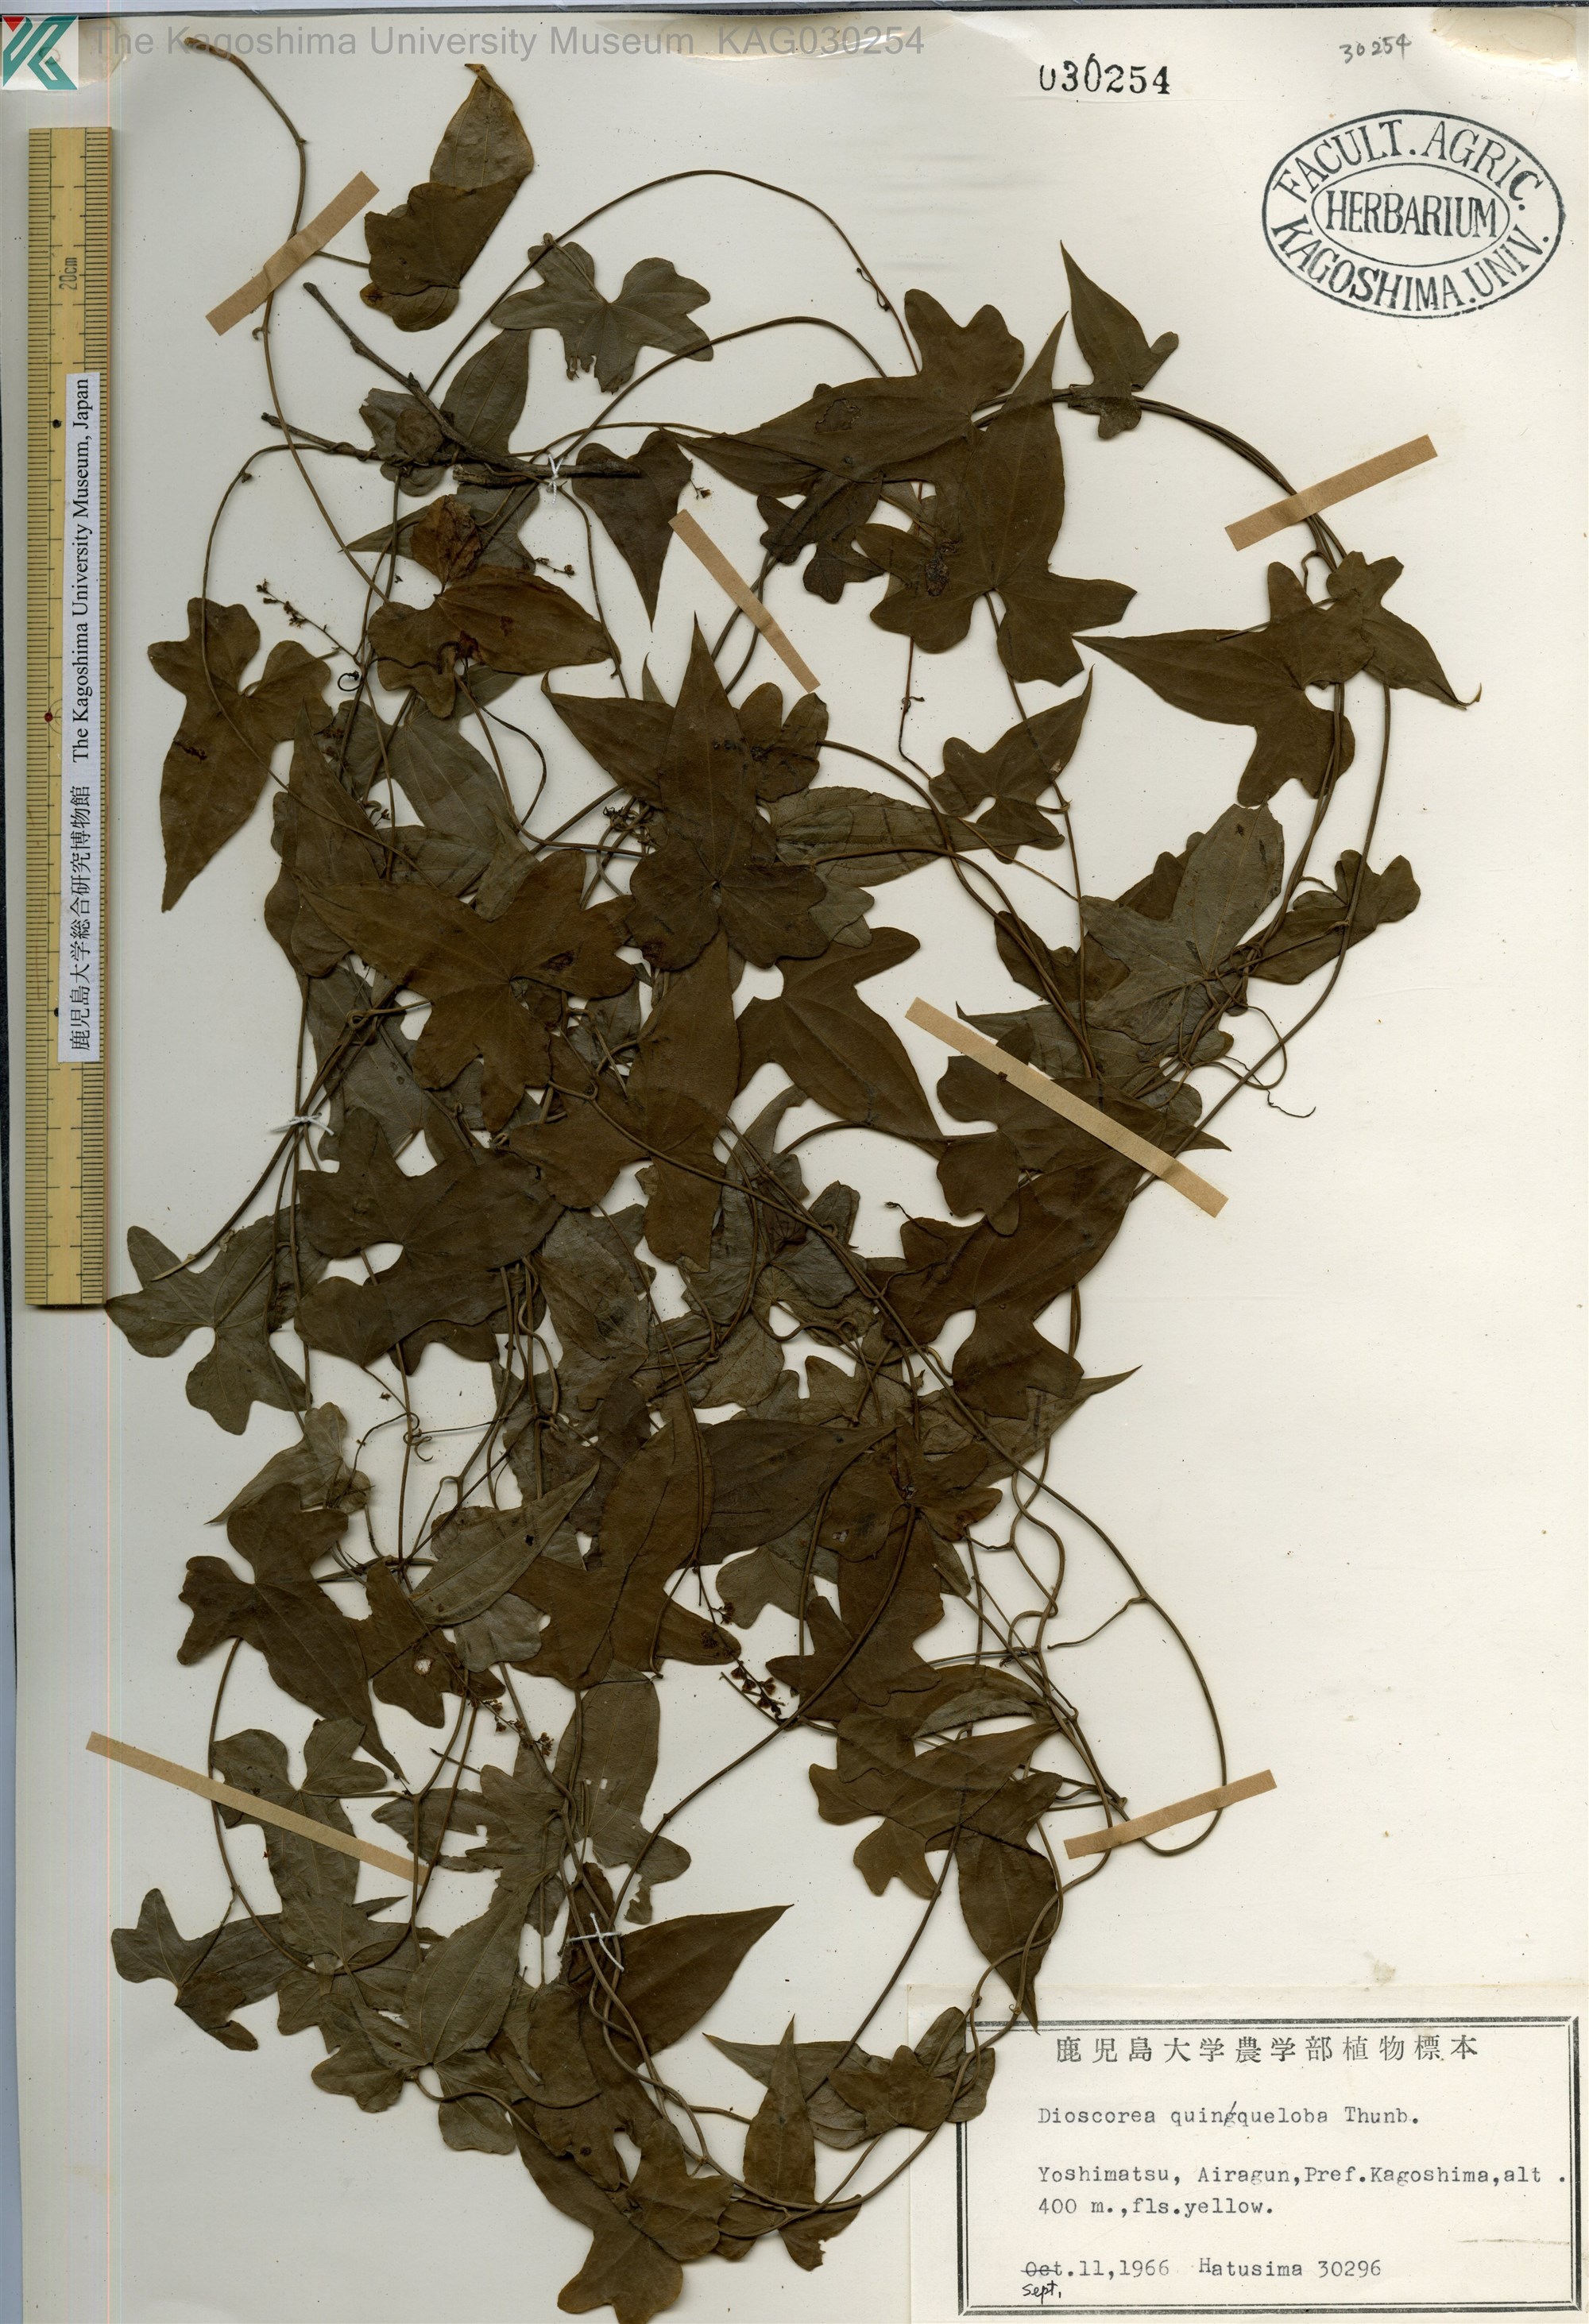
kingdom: Plantae
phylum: Tracheophyta
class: Liliopsida
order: Dioscoreales
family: Dioscoreaceae
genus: Dioscorea
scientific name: Dioscorea quinquelobata
